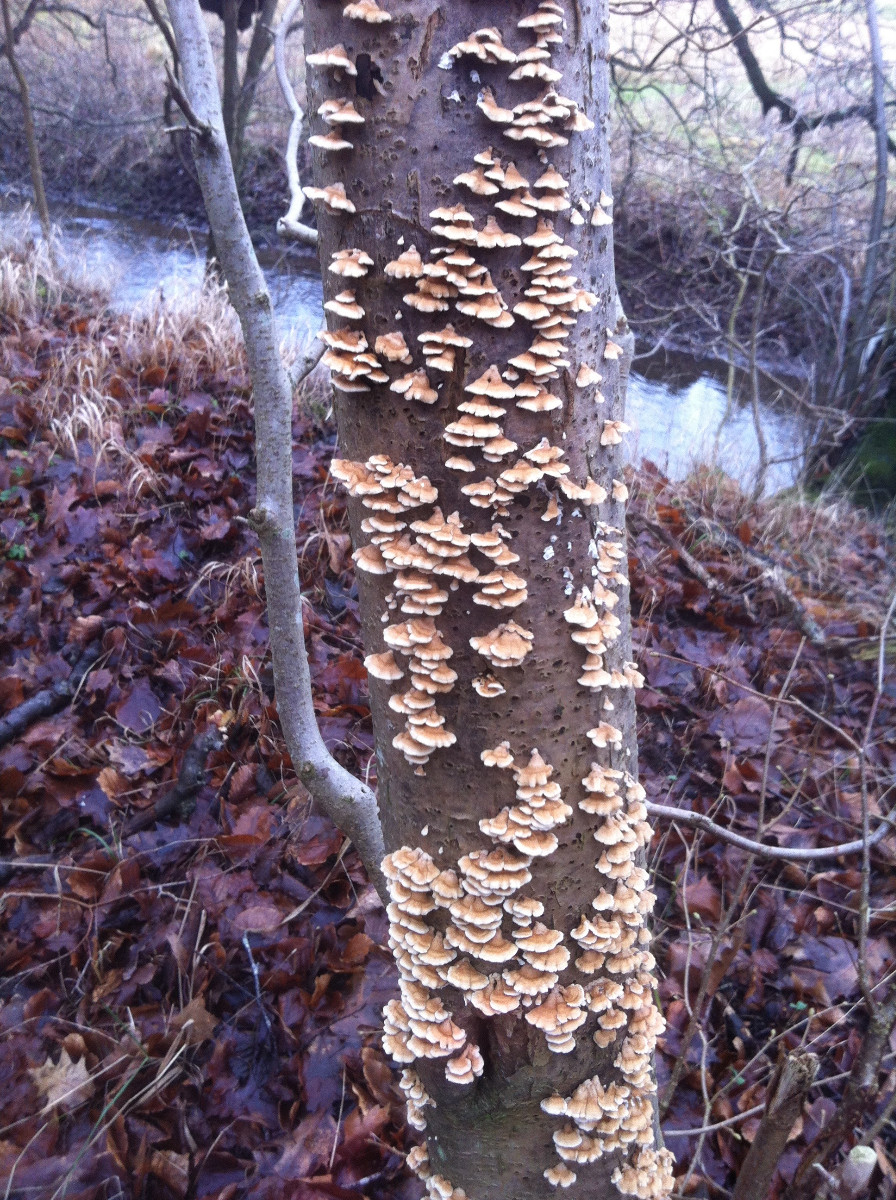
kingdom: Fungi
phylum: Basidiomycota
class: Agaricomycetes
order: Amylocorticiales
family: Amylocorticiaceae
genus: Plicaturopsis
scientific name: Plicaturopsis crispa
